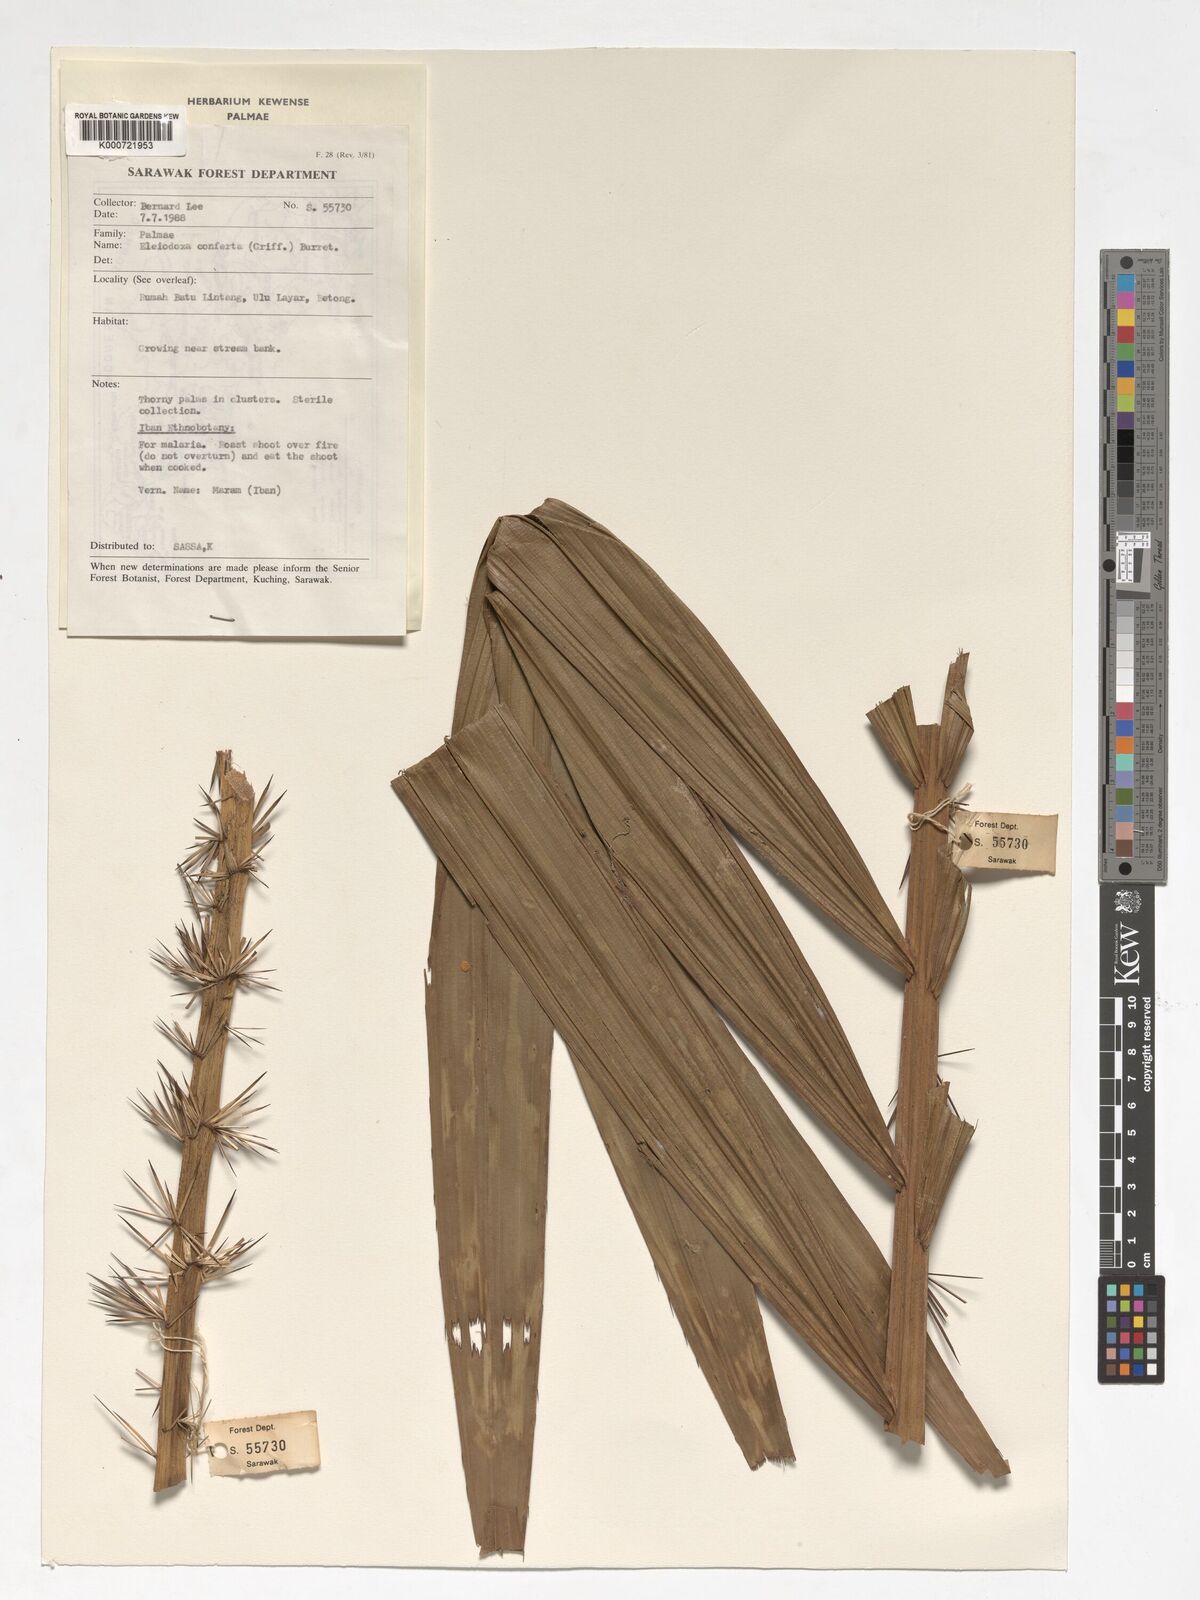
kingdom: Plantae
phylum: Tracheophyta
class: Liliopsida
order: Arecales
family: Arecaceae
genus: Eleiodoxa
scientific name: Eleiodoxa conferta
